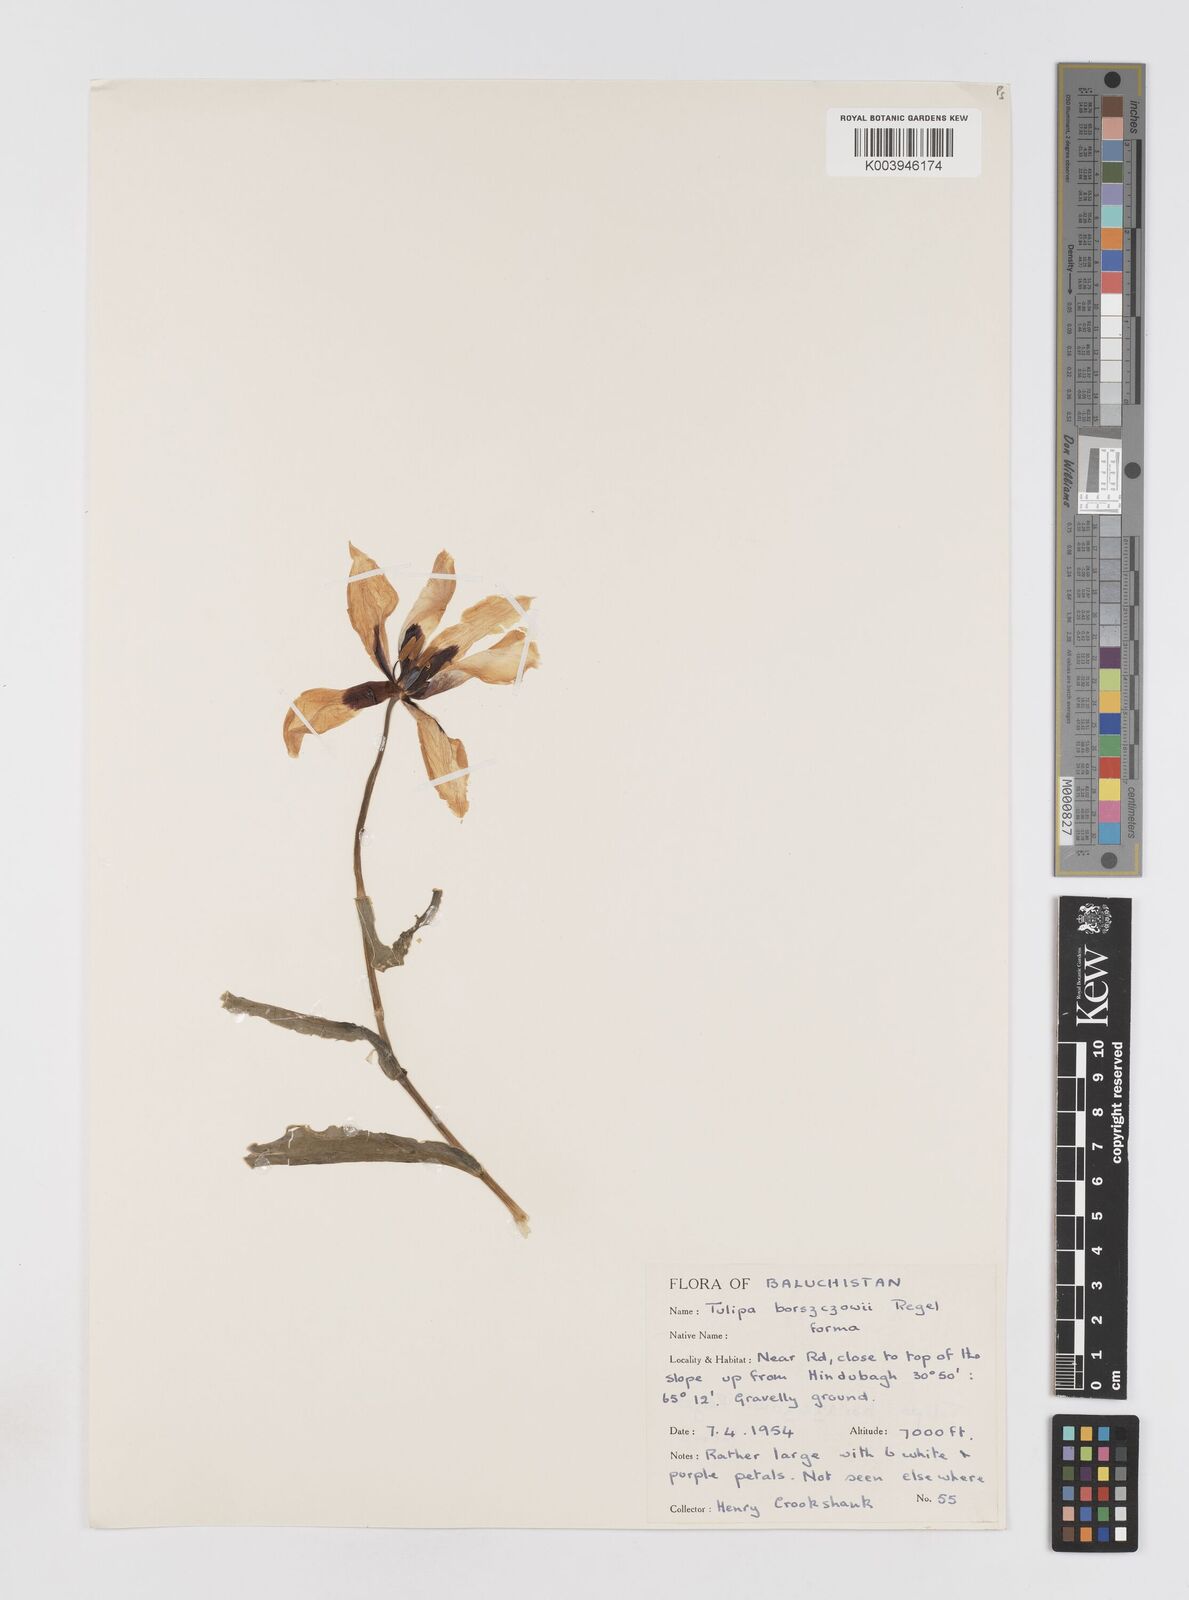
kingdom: Plantae
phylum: Tracheophyta
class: Liliopsida
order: Liliales
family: Liliaceae
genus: Tulipa
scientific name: Tulipa borszczowii
